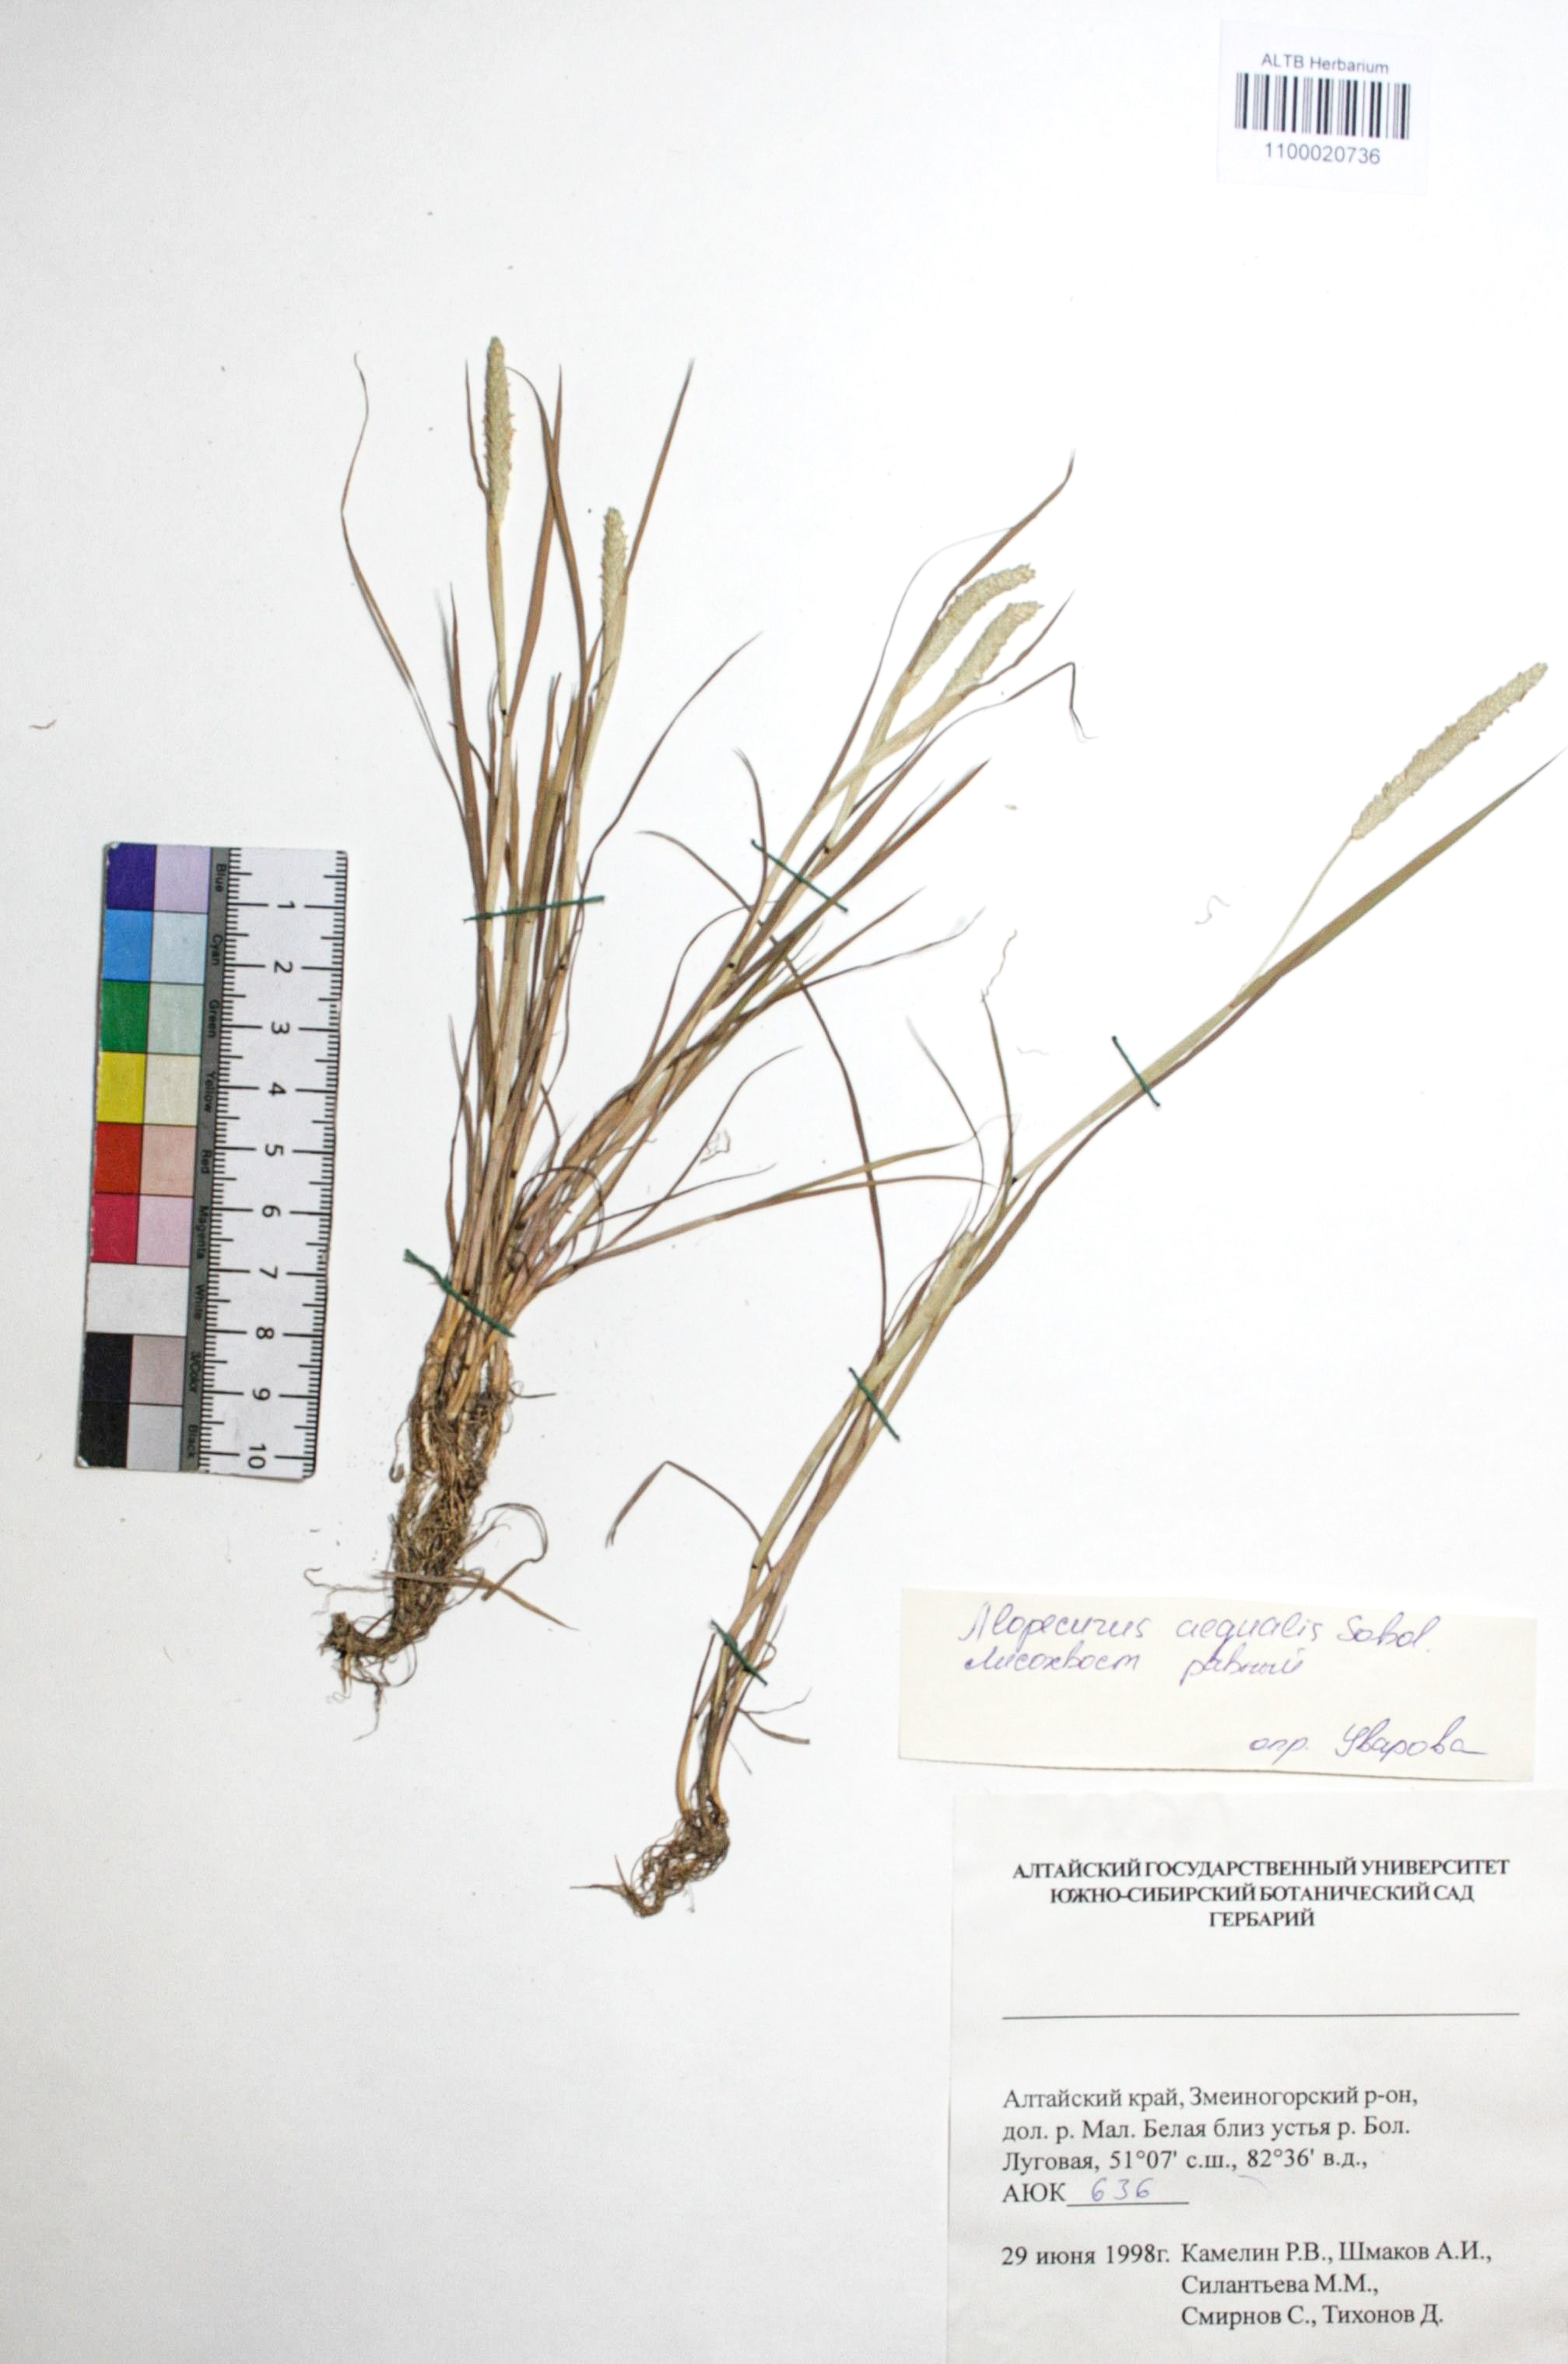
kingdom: Plantae
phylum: Tracheophyta
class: Liliopsida
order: Poales
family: Poaceae
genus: Alopecurus
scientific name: Alopecurus aequalis
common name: Orange foxtail
